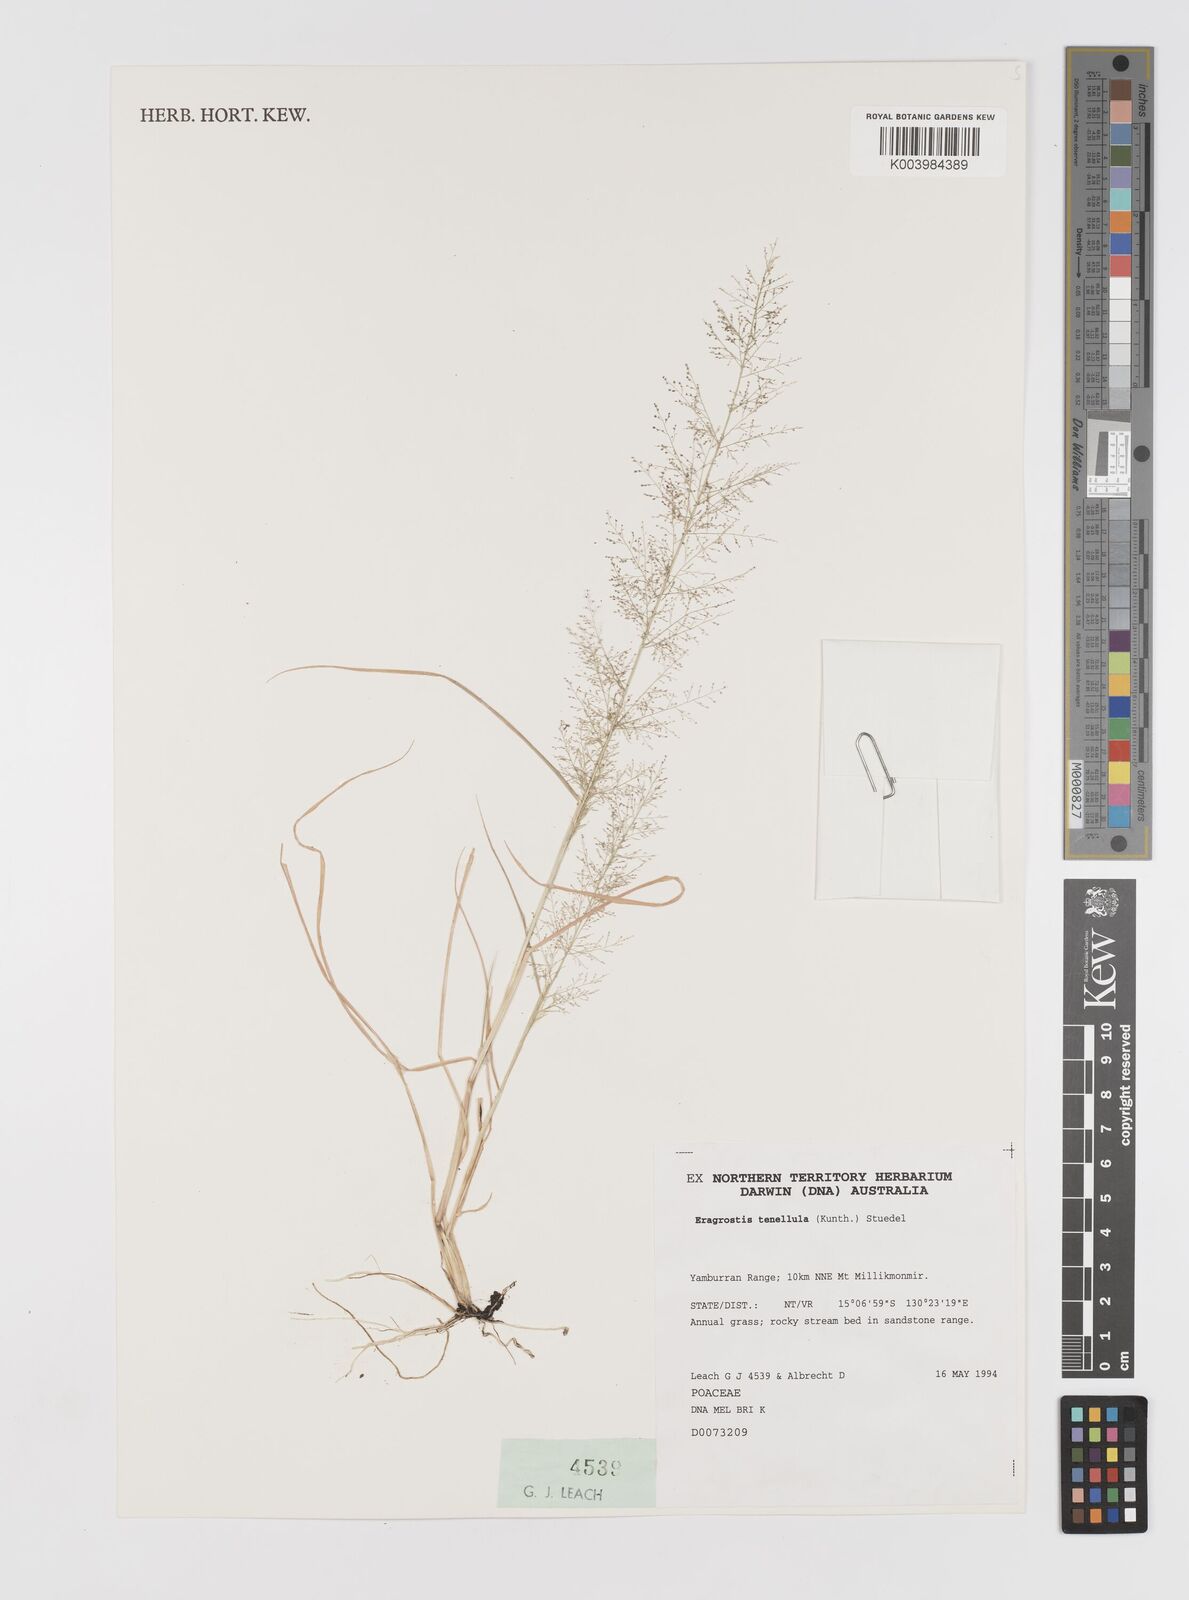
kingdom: Plantae
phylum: Tracheophyta
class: Liliopsida
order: Poales
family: Poaceae
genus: Eragrostis
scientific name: Eragrostis tenellula
